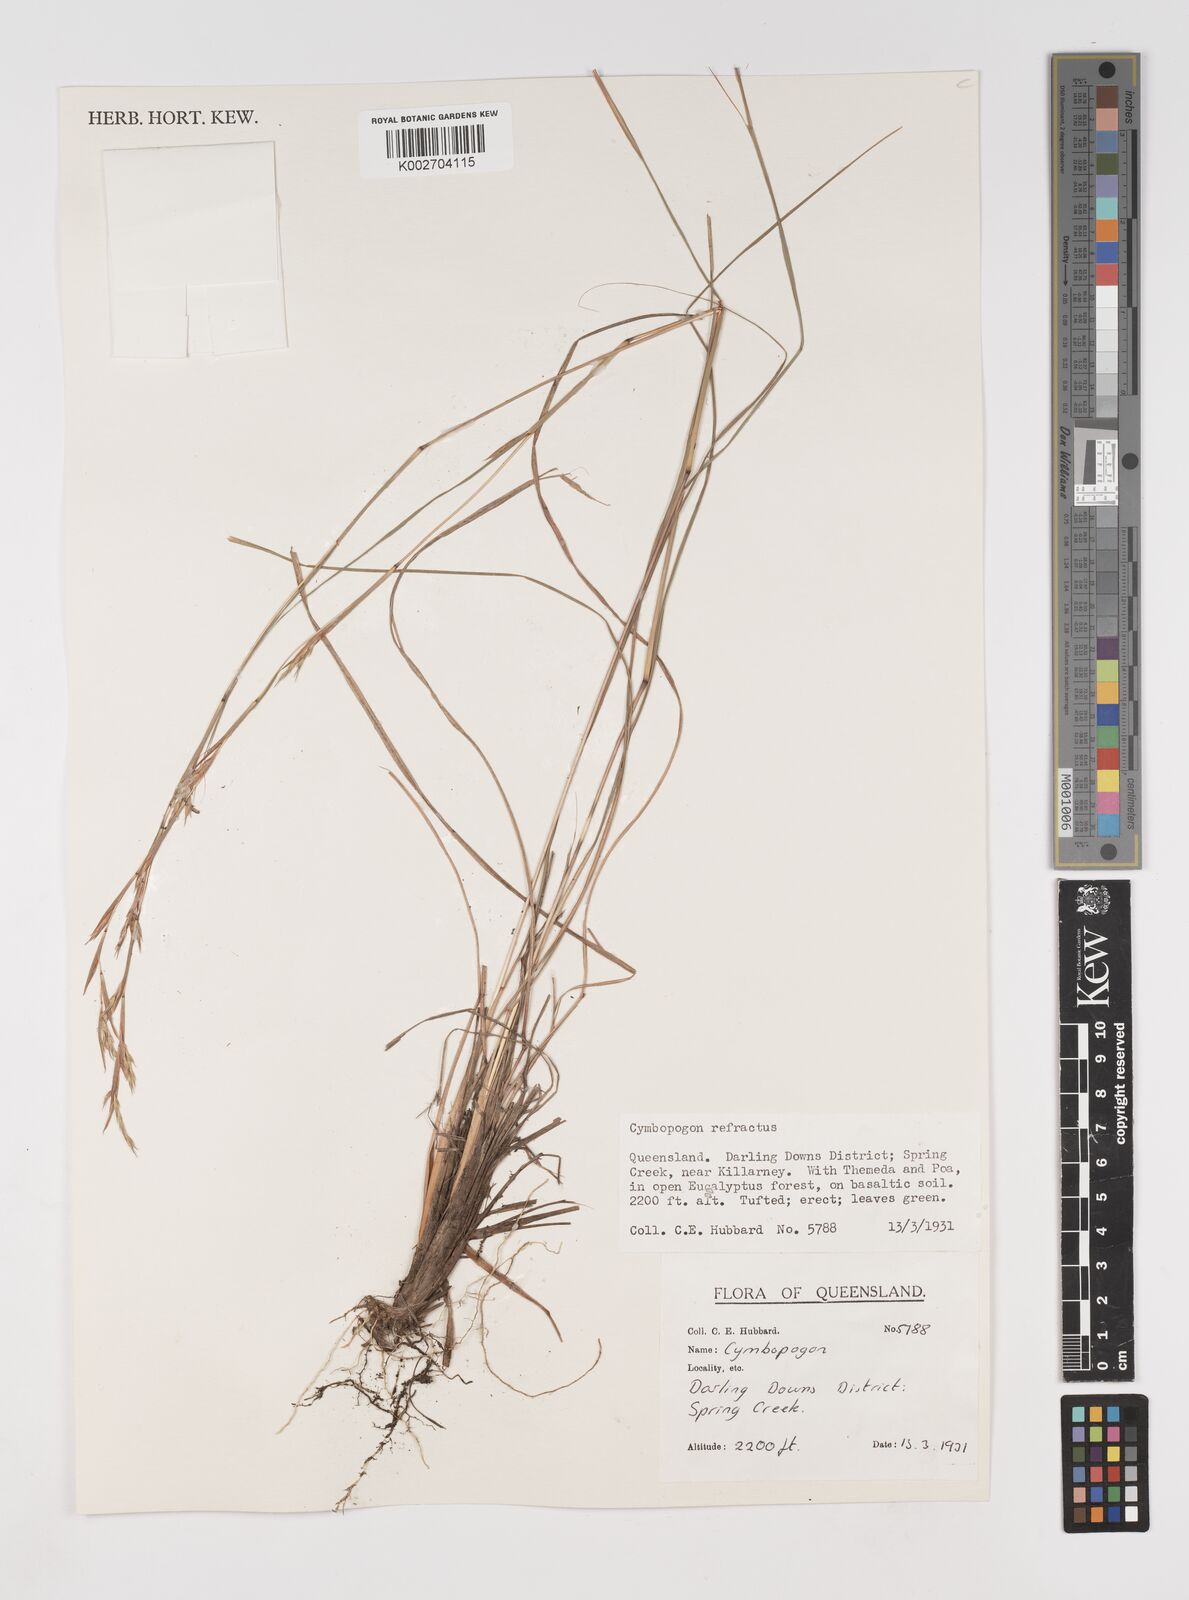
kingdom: Plantae
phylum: Tracheophyta
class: Liliopsida
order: Poales
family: Poaceae
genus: Cymbopogon
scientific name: Cymbopogon
